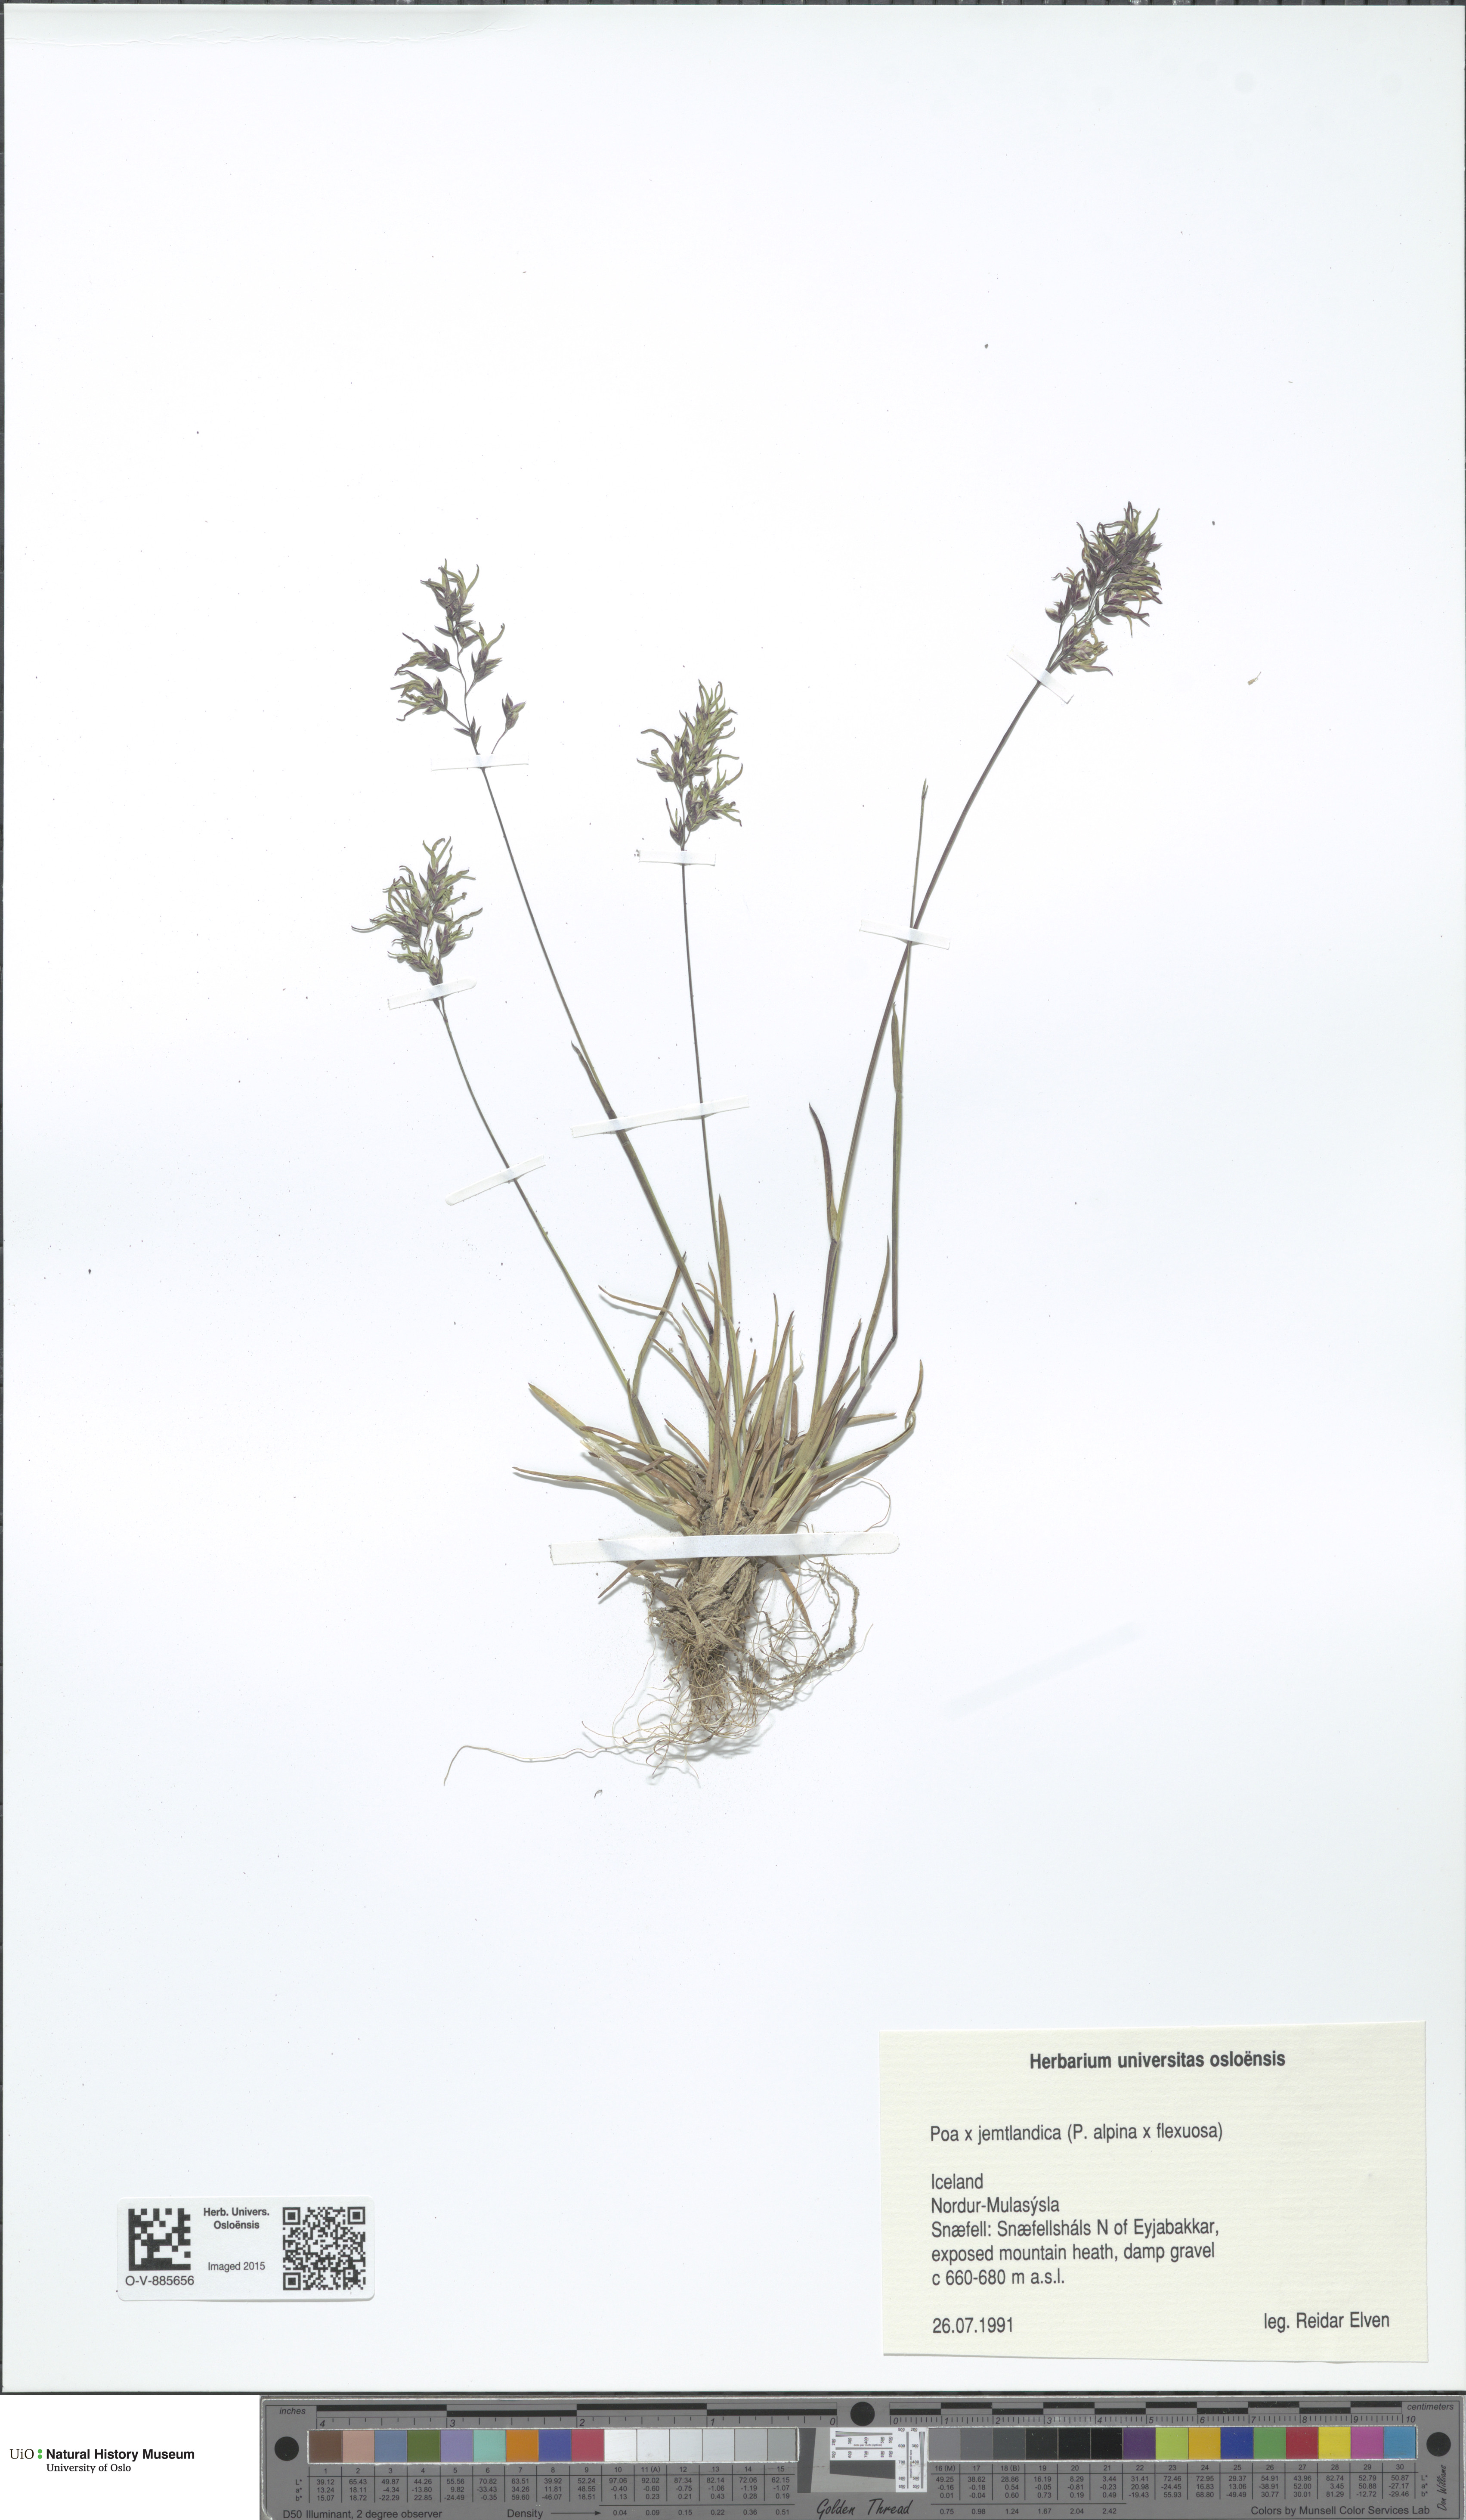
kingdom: Plantae
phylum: Tracheophyta
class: Liliopsida
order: Poales
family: Poaceae
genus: Poa
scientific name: Poa jemtlandica
